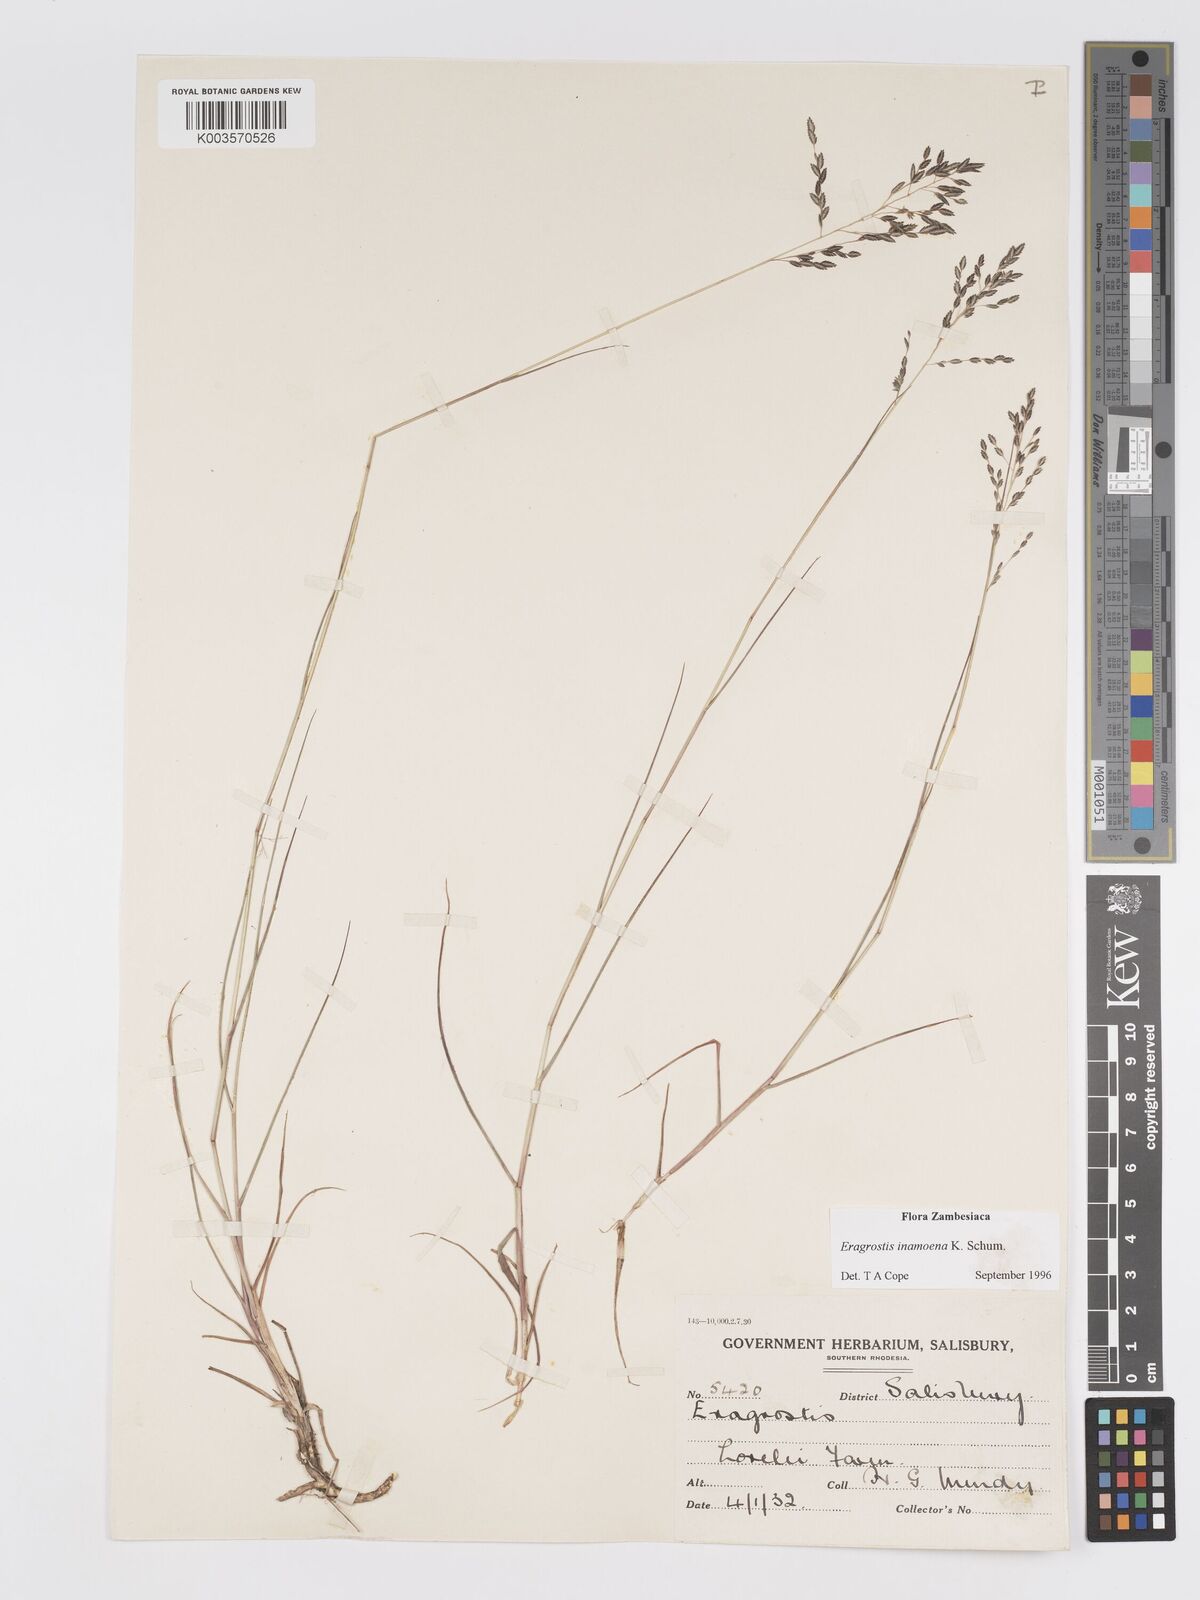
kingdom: Plantae
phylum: Tracheophyta
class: Liliopsida
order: Poales
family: Poaceae
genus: Eragrostis
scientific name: Eragrostis inamoena
